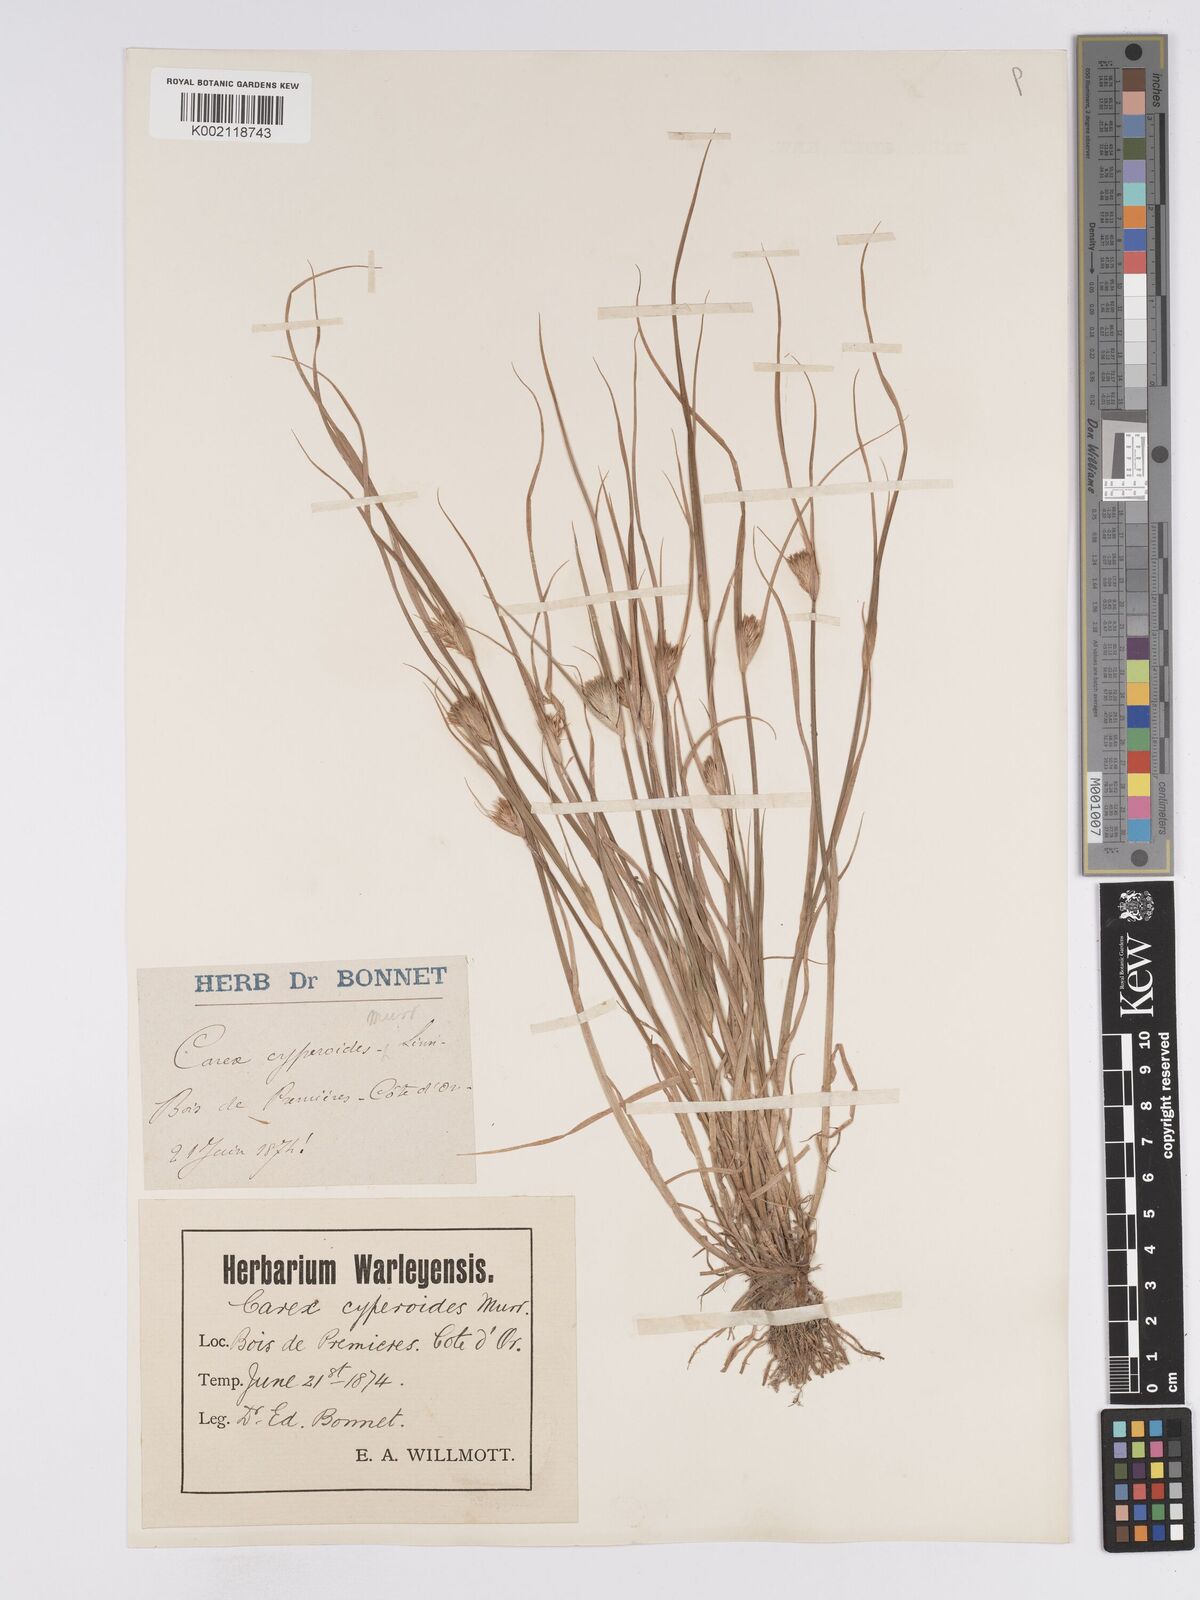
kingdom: Plantae
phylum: Tracheophyta
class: Liliopsida
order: Poales
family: Cyperaceae
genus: Carex
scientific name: Carex bohemica
